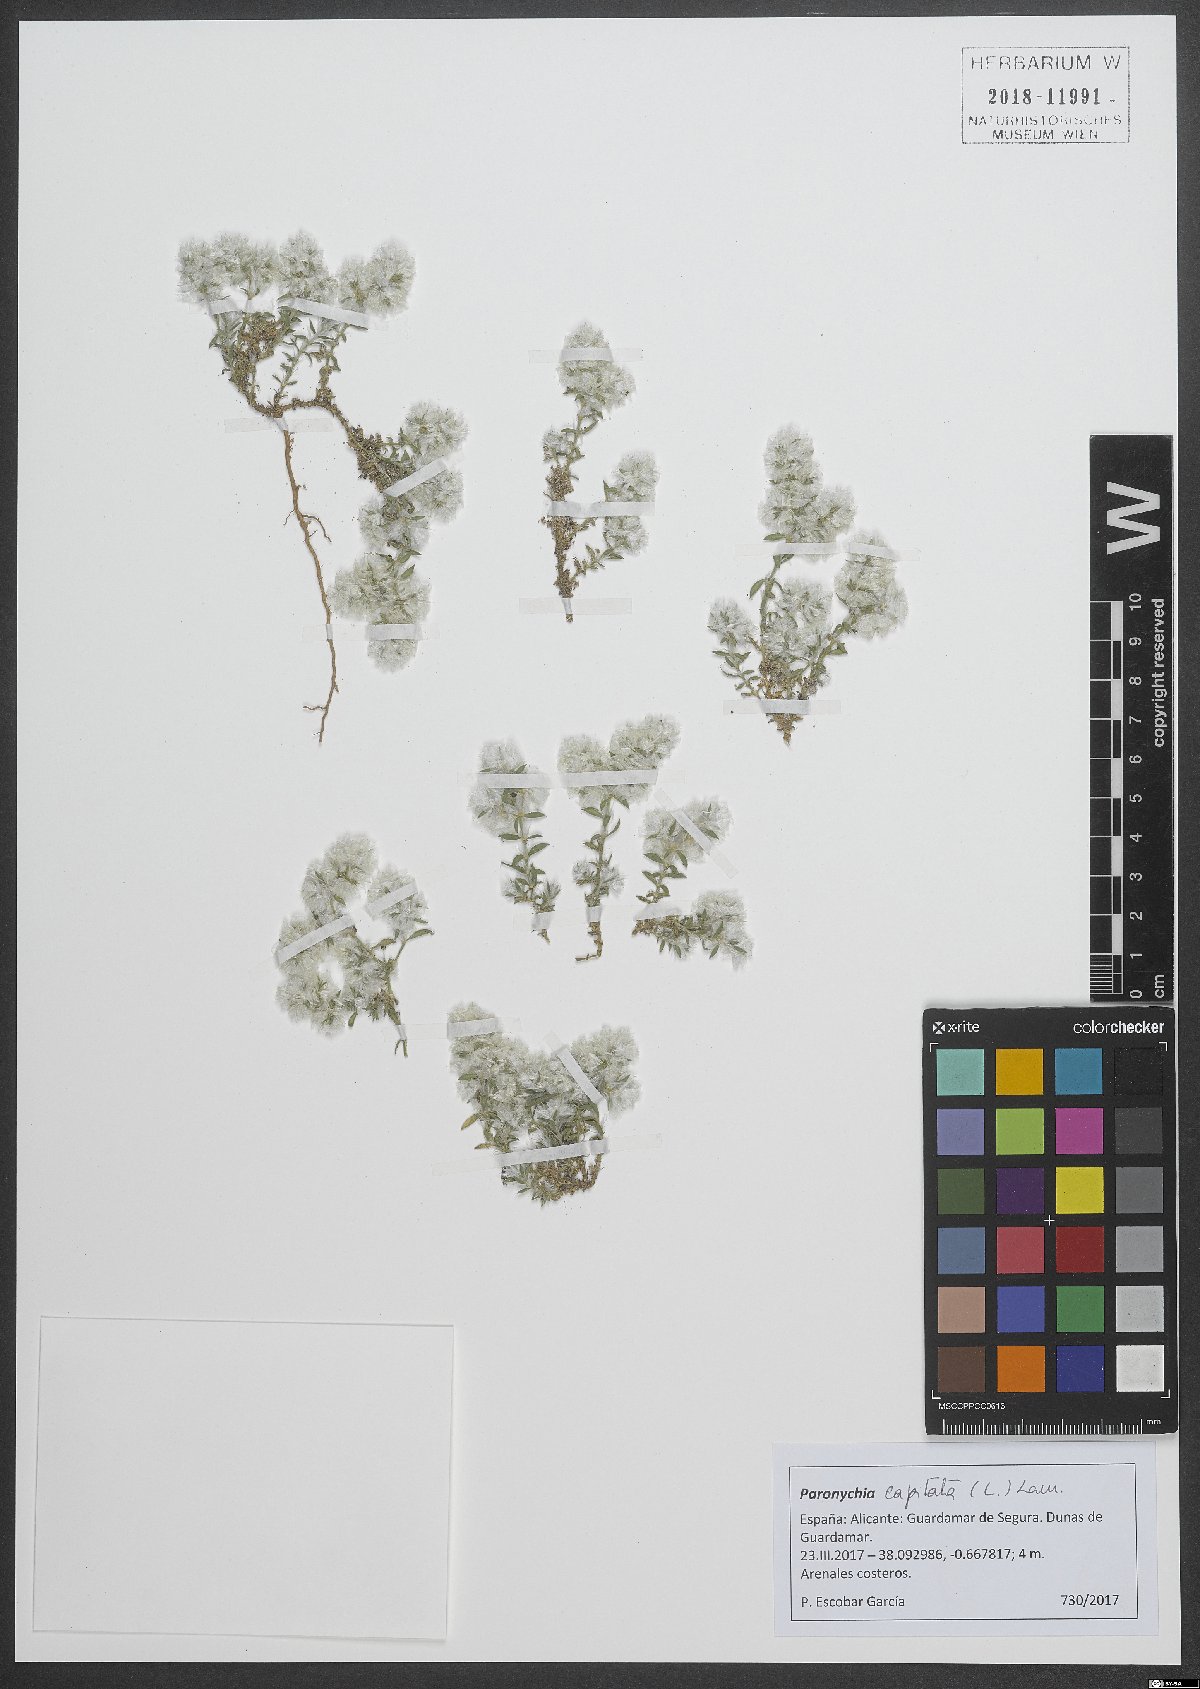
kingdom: Plantae
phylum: Tracheophyta
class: Magnoliopsida
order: Caryophyllales
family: Caryophyllaceae
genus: Paronychia
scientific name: Paronychia capitata
